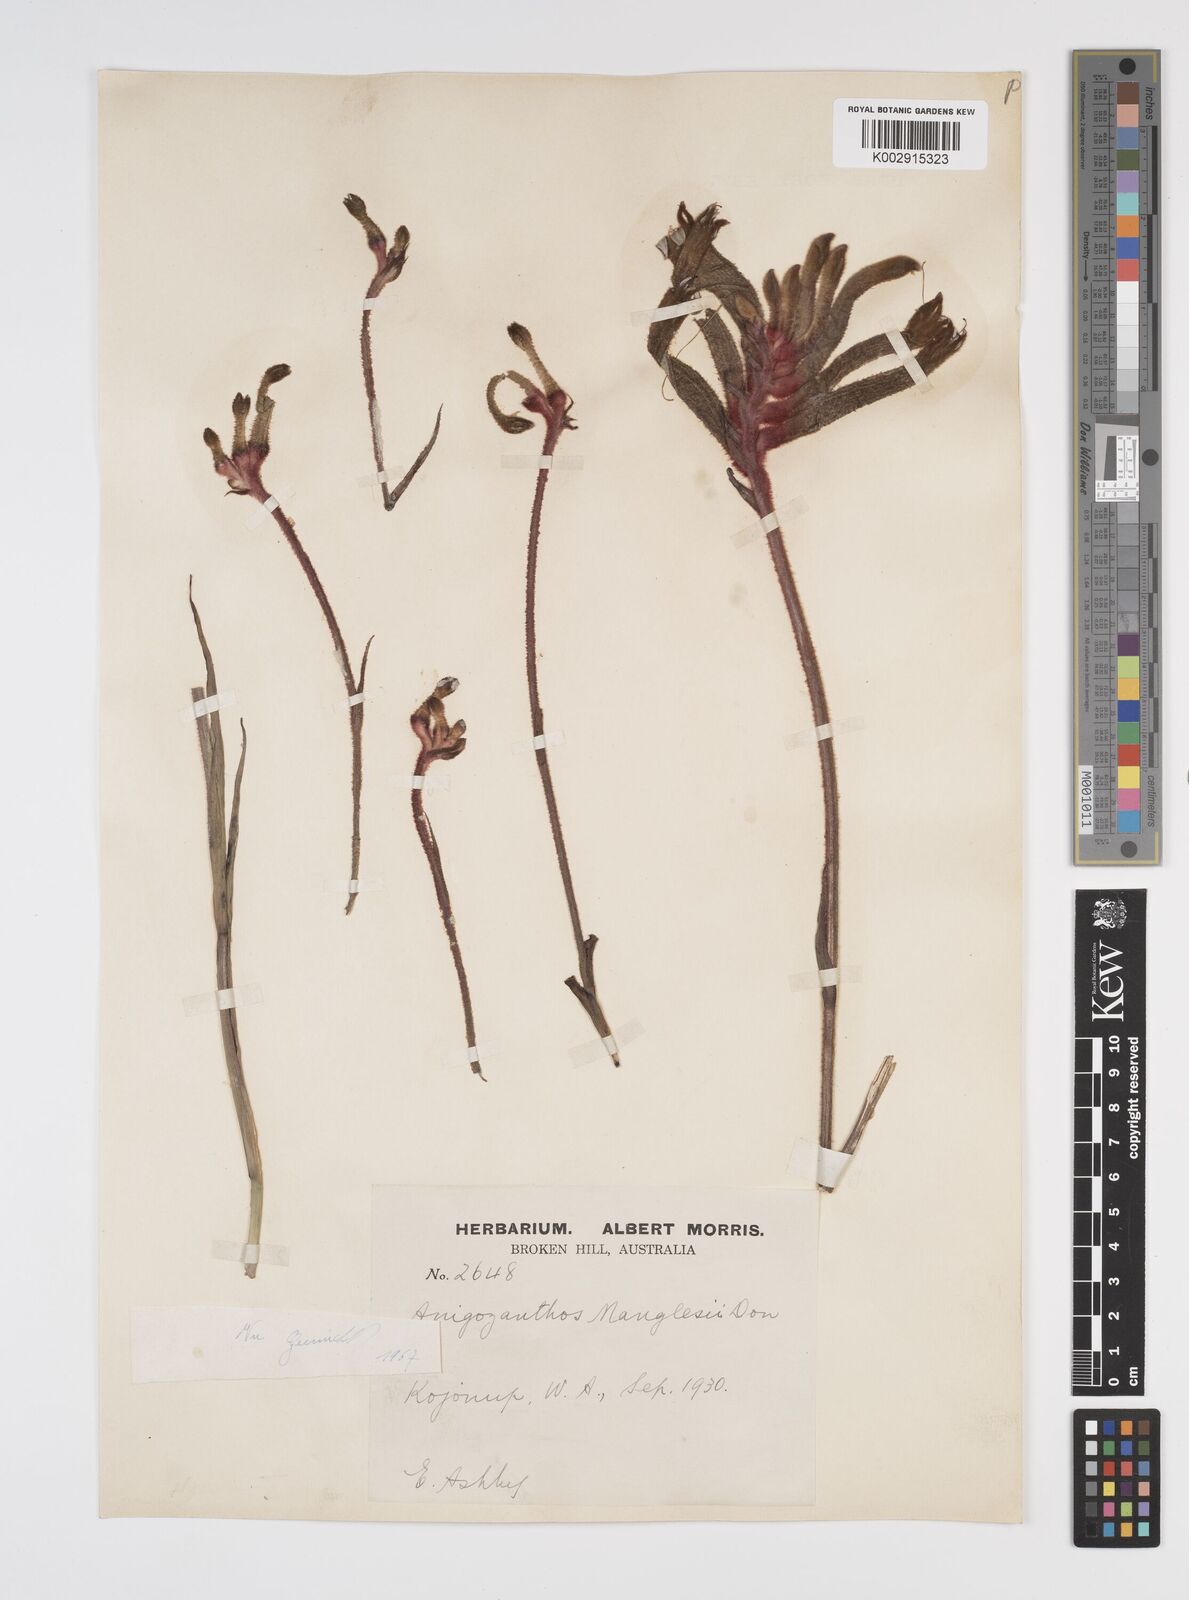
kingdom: Plantae
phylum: Tracheophyta
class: Liliopsida
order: Commelinales
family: Haemodoraceae
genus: Anigozanthos
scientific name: Anigozanthos manglesii
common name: Mangles's kangaroo-paw
